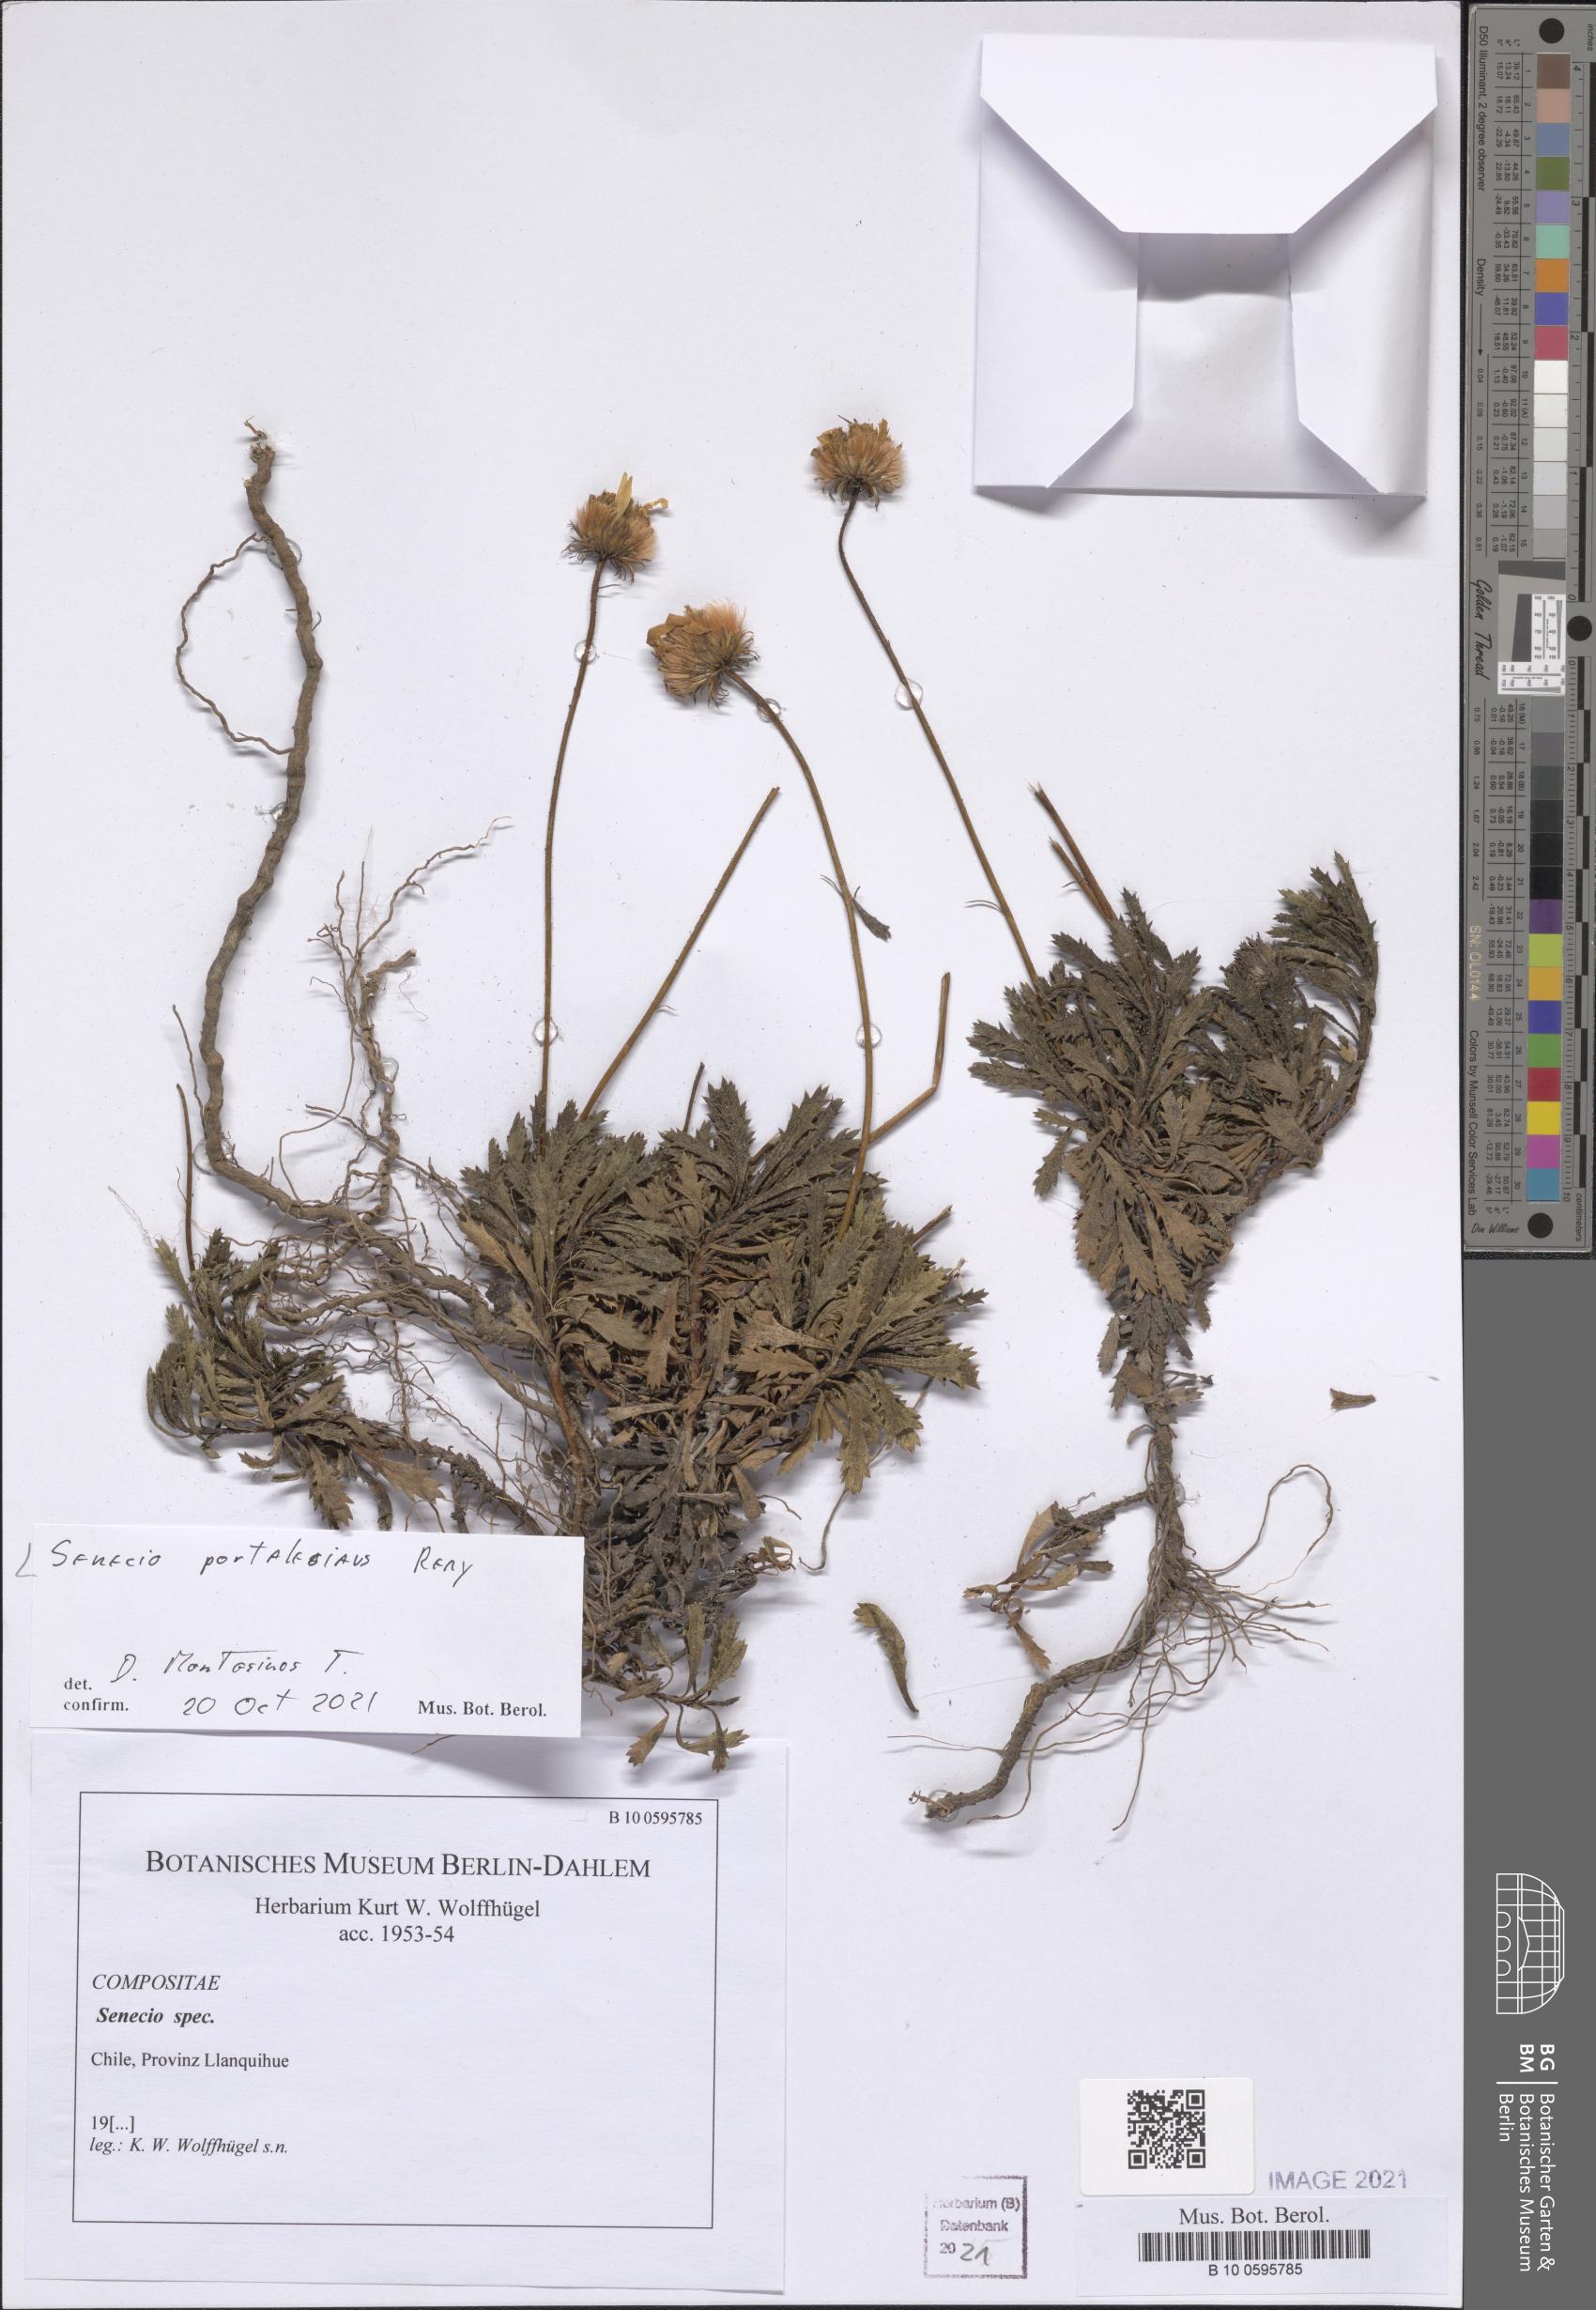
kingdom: Plantae
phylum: Tracheophyta
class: Magnoliopsida
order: Asterales
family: Asteraceae
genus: Senecio
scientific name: Senecio portalesianus
